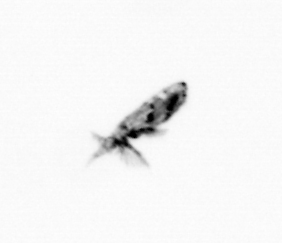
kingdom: Animalia
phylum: Arthropoda
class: Copepoda
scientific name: Copepoda
